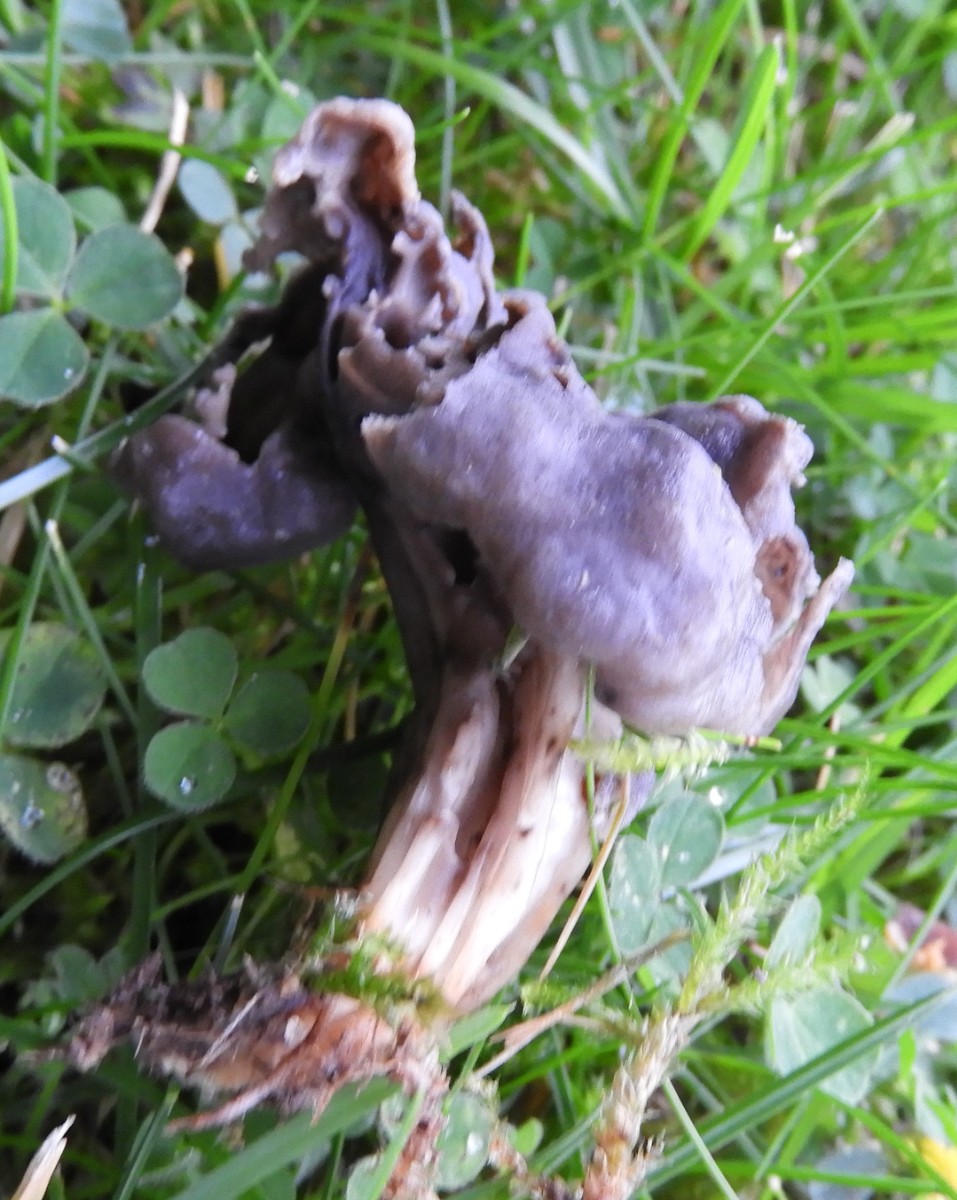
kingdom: Fungi
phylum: Ascomycota
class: Pezizomycetes
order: Pezizales
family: Helvellaceae
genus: Helvella
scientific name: Helvella lacunosa
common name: grubet foldhat
